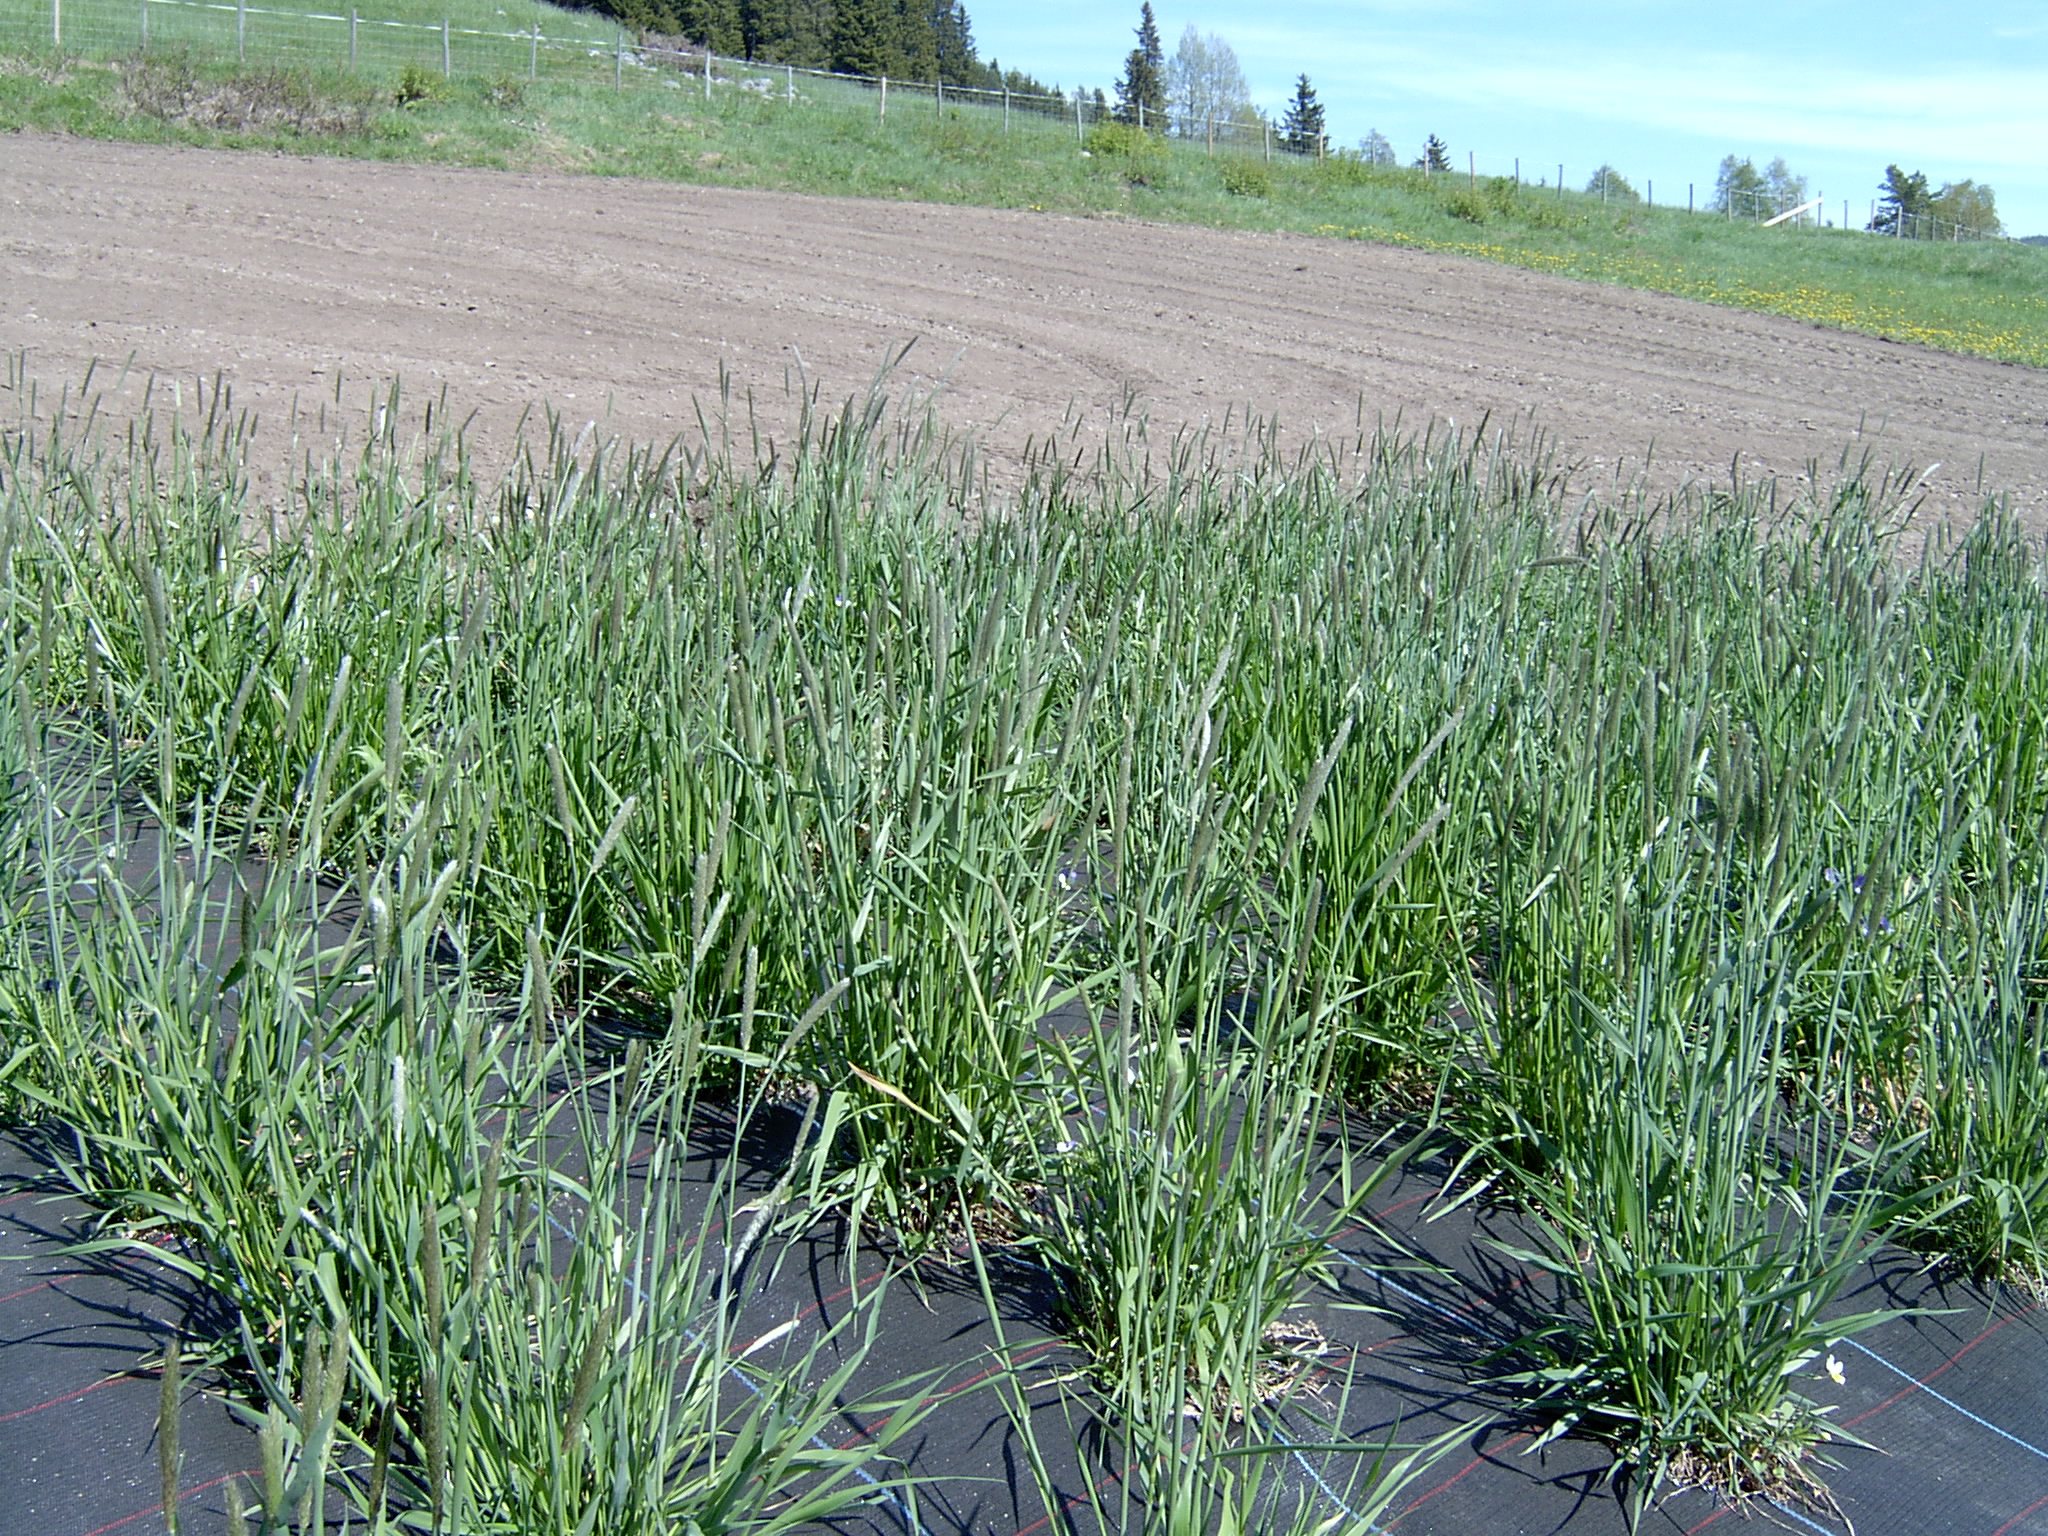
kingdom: Plantae
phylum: Tracheophyta
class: Liliopsida
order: Poales
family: Poaceae
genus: Alopecurus
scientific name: Alopecurus pratensis
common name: Meadow foxtail
